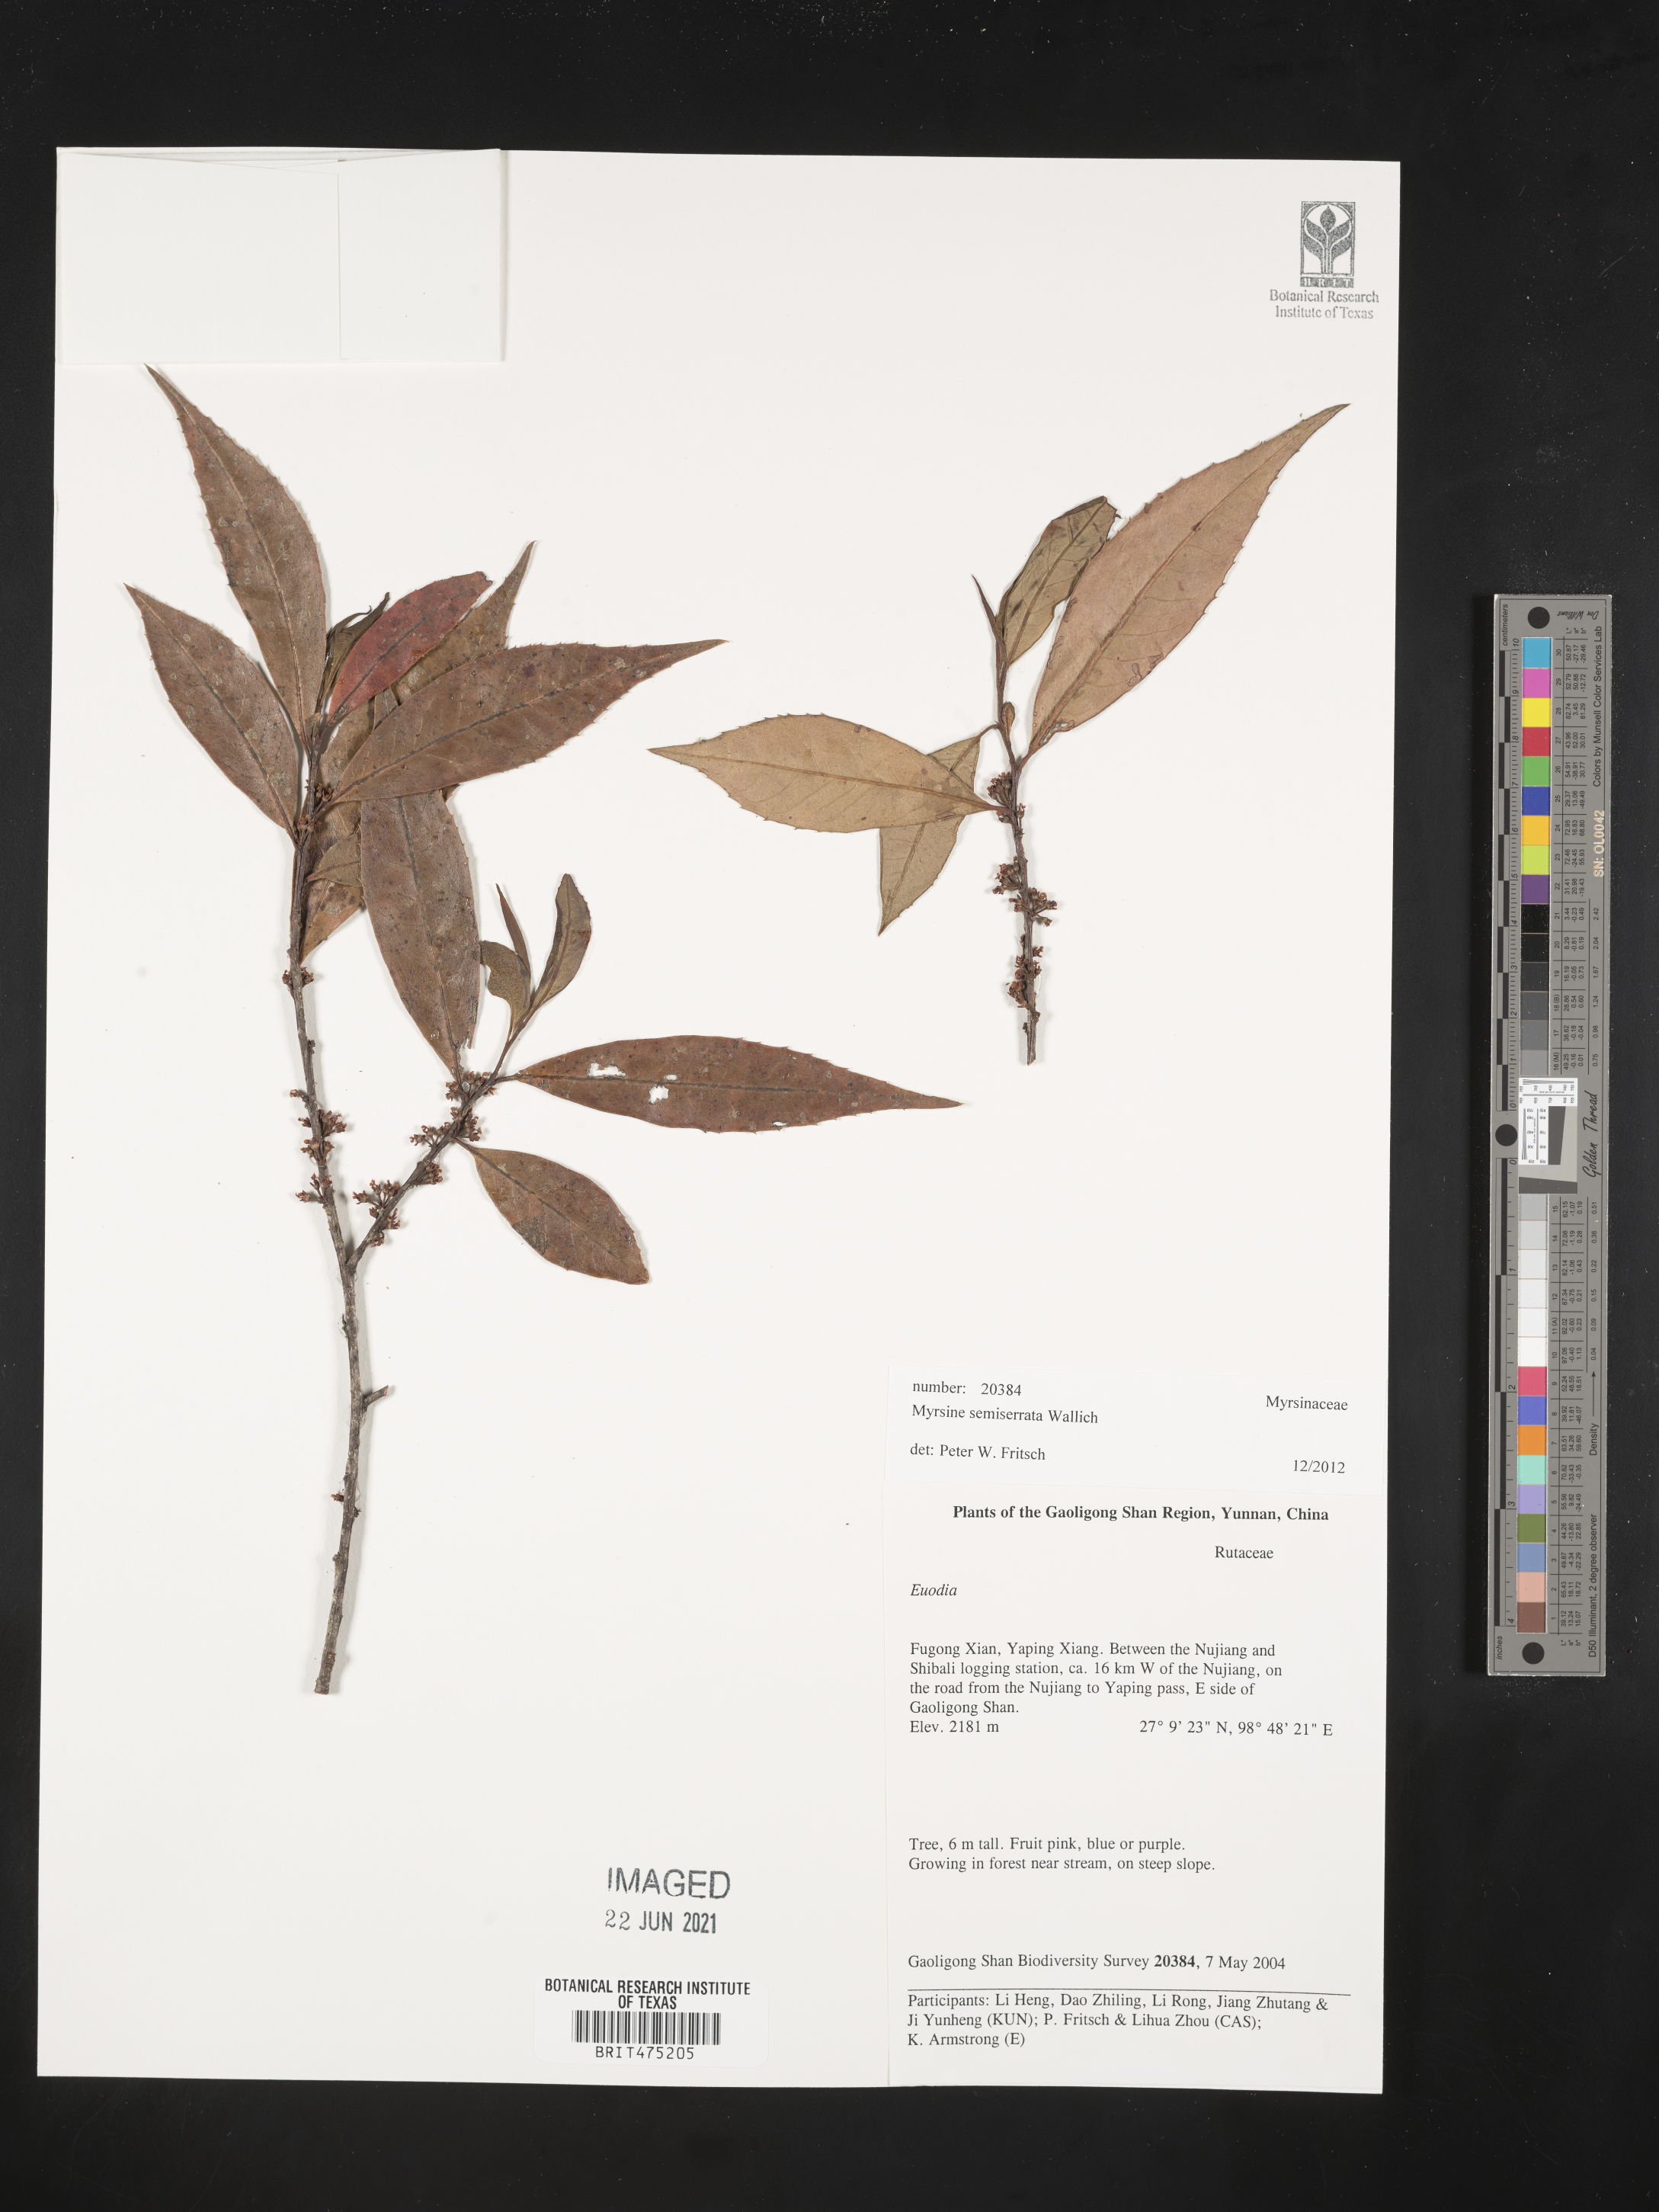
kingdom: Plantae
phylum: Tracheophyta
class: Magnoliopsida
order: Ericales
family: Primulaceae
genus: Myrsine
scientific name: Myrsine semiserrata
